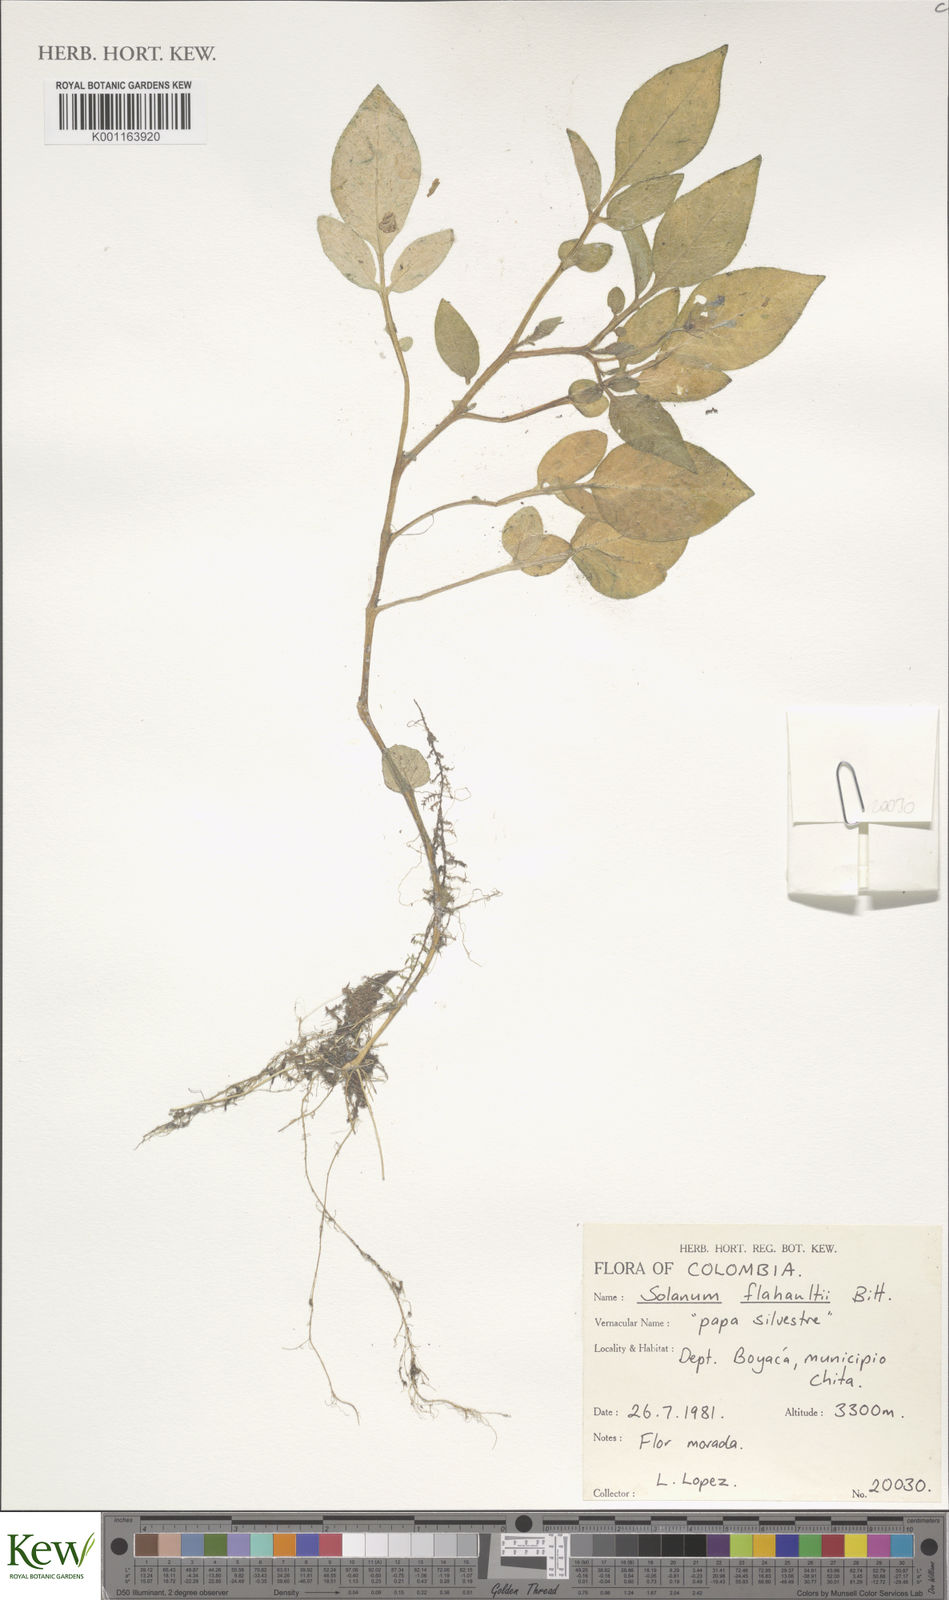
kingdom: Plantae
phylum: Tracheophyta
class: Magnoliopsida
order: Solanales
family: Solanaceae
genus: Solanum
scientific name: Solanum flahaultii
